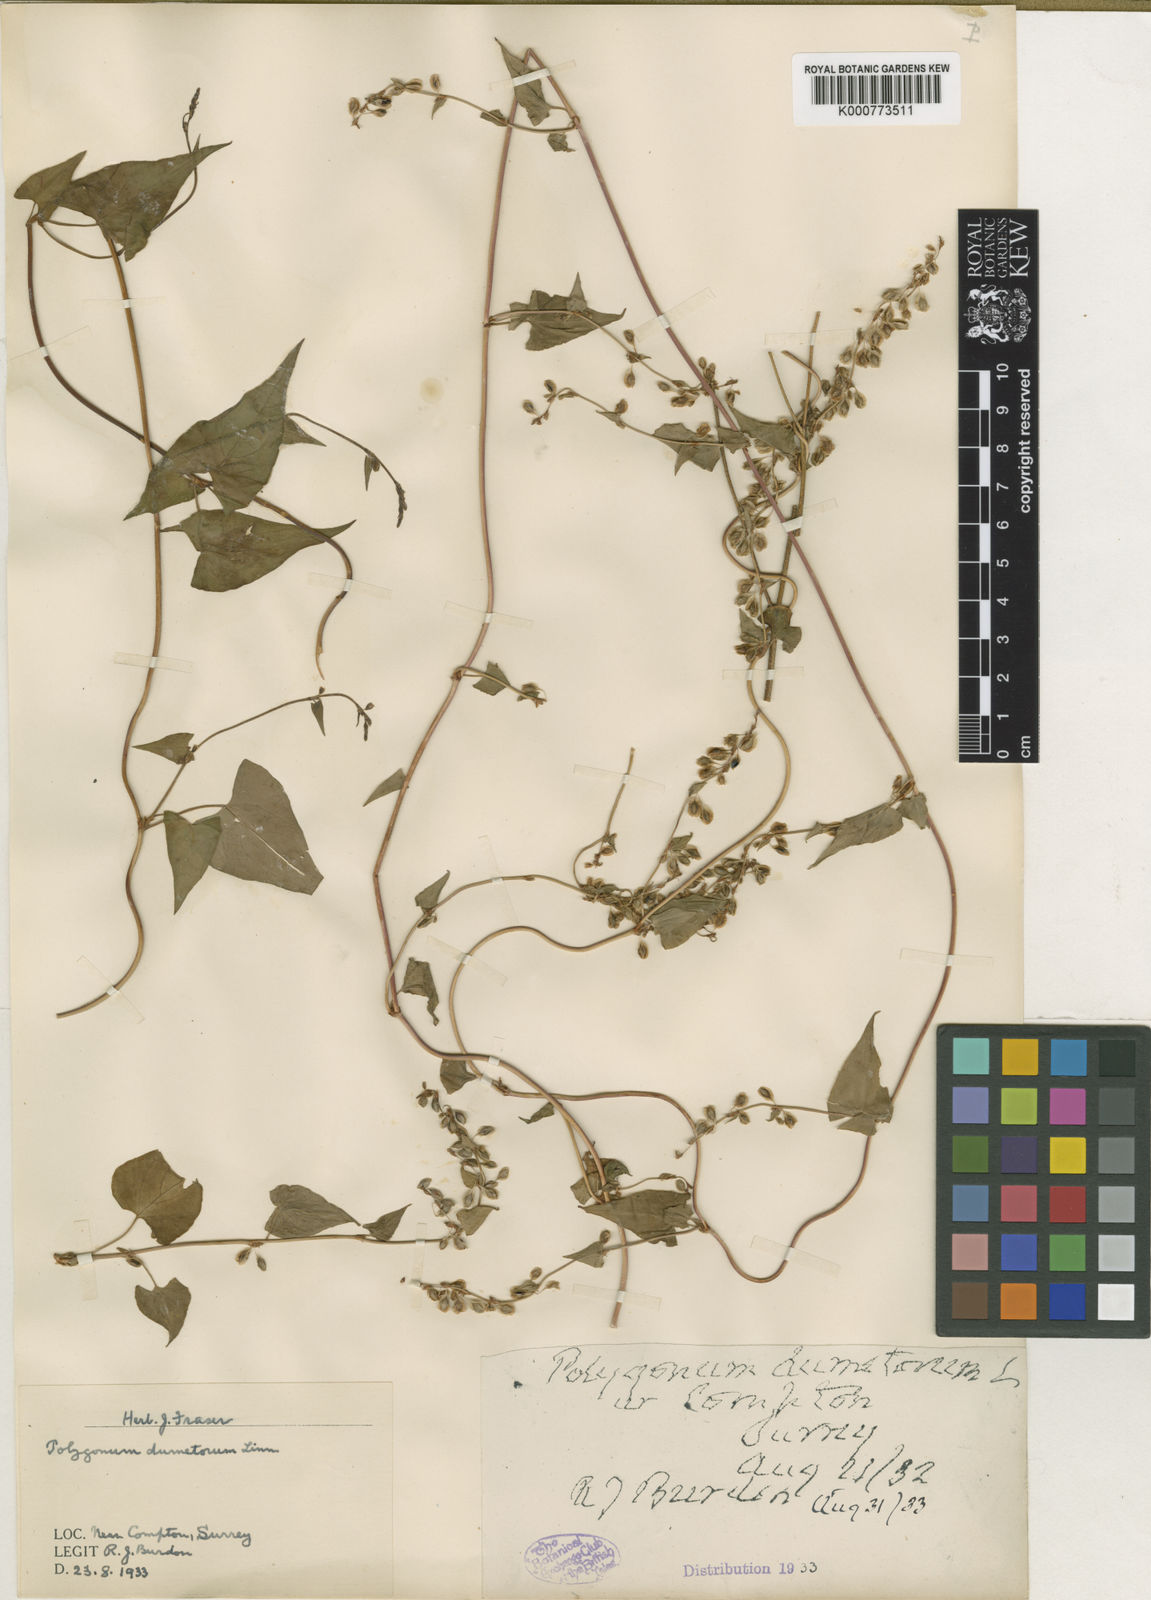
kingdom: Plantae
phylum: Tracheophyta
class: Magnoliopsida
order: Caryophyllales
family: Polygonaceae
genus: Fallopia
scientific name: Fallopia dumetorum
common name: Copse-bindweed
